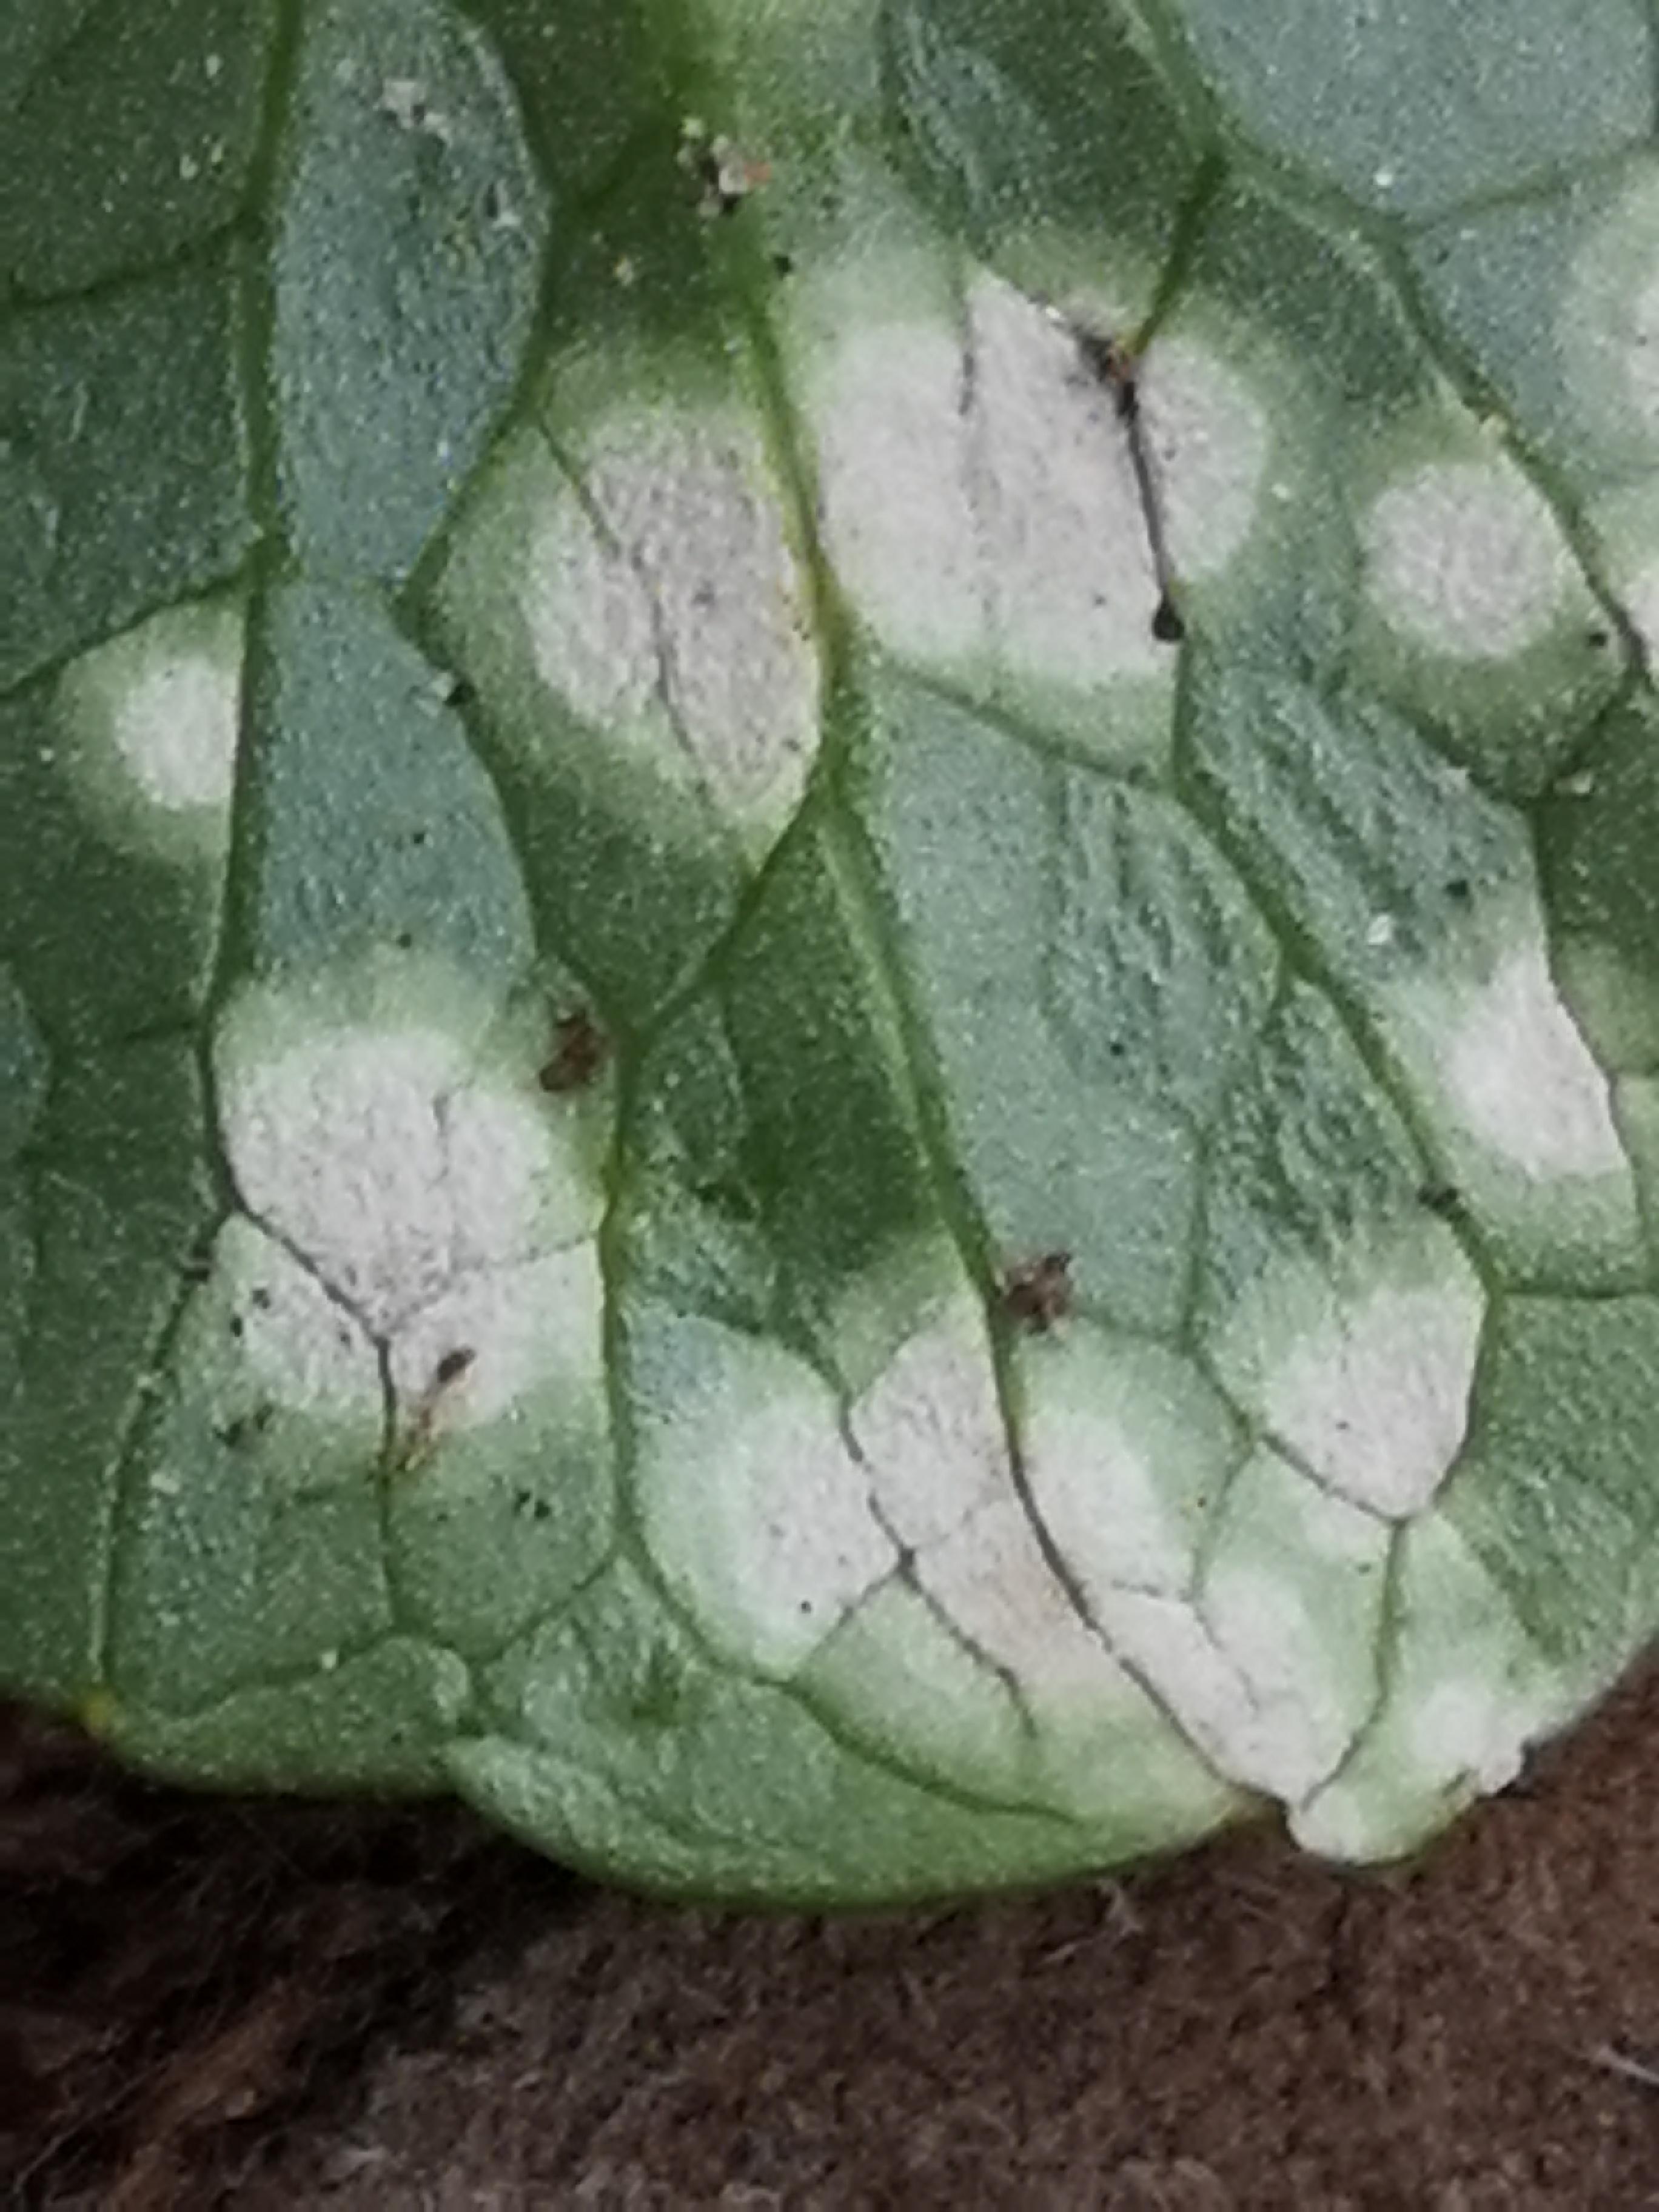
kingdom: Fungi
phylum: Basidiomycota
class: Exobasidiomycetes
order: Entylomatales
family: Entylomataceae
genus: Entyloma
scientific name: Entyloma ficariae
